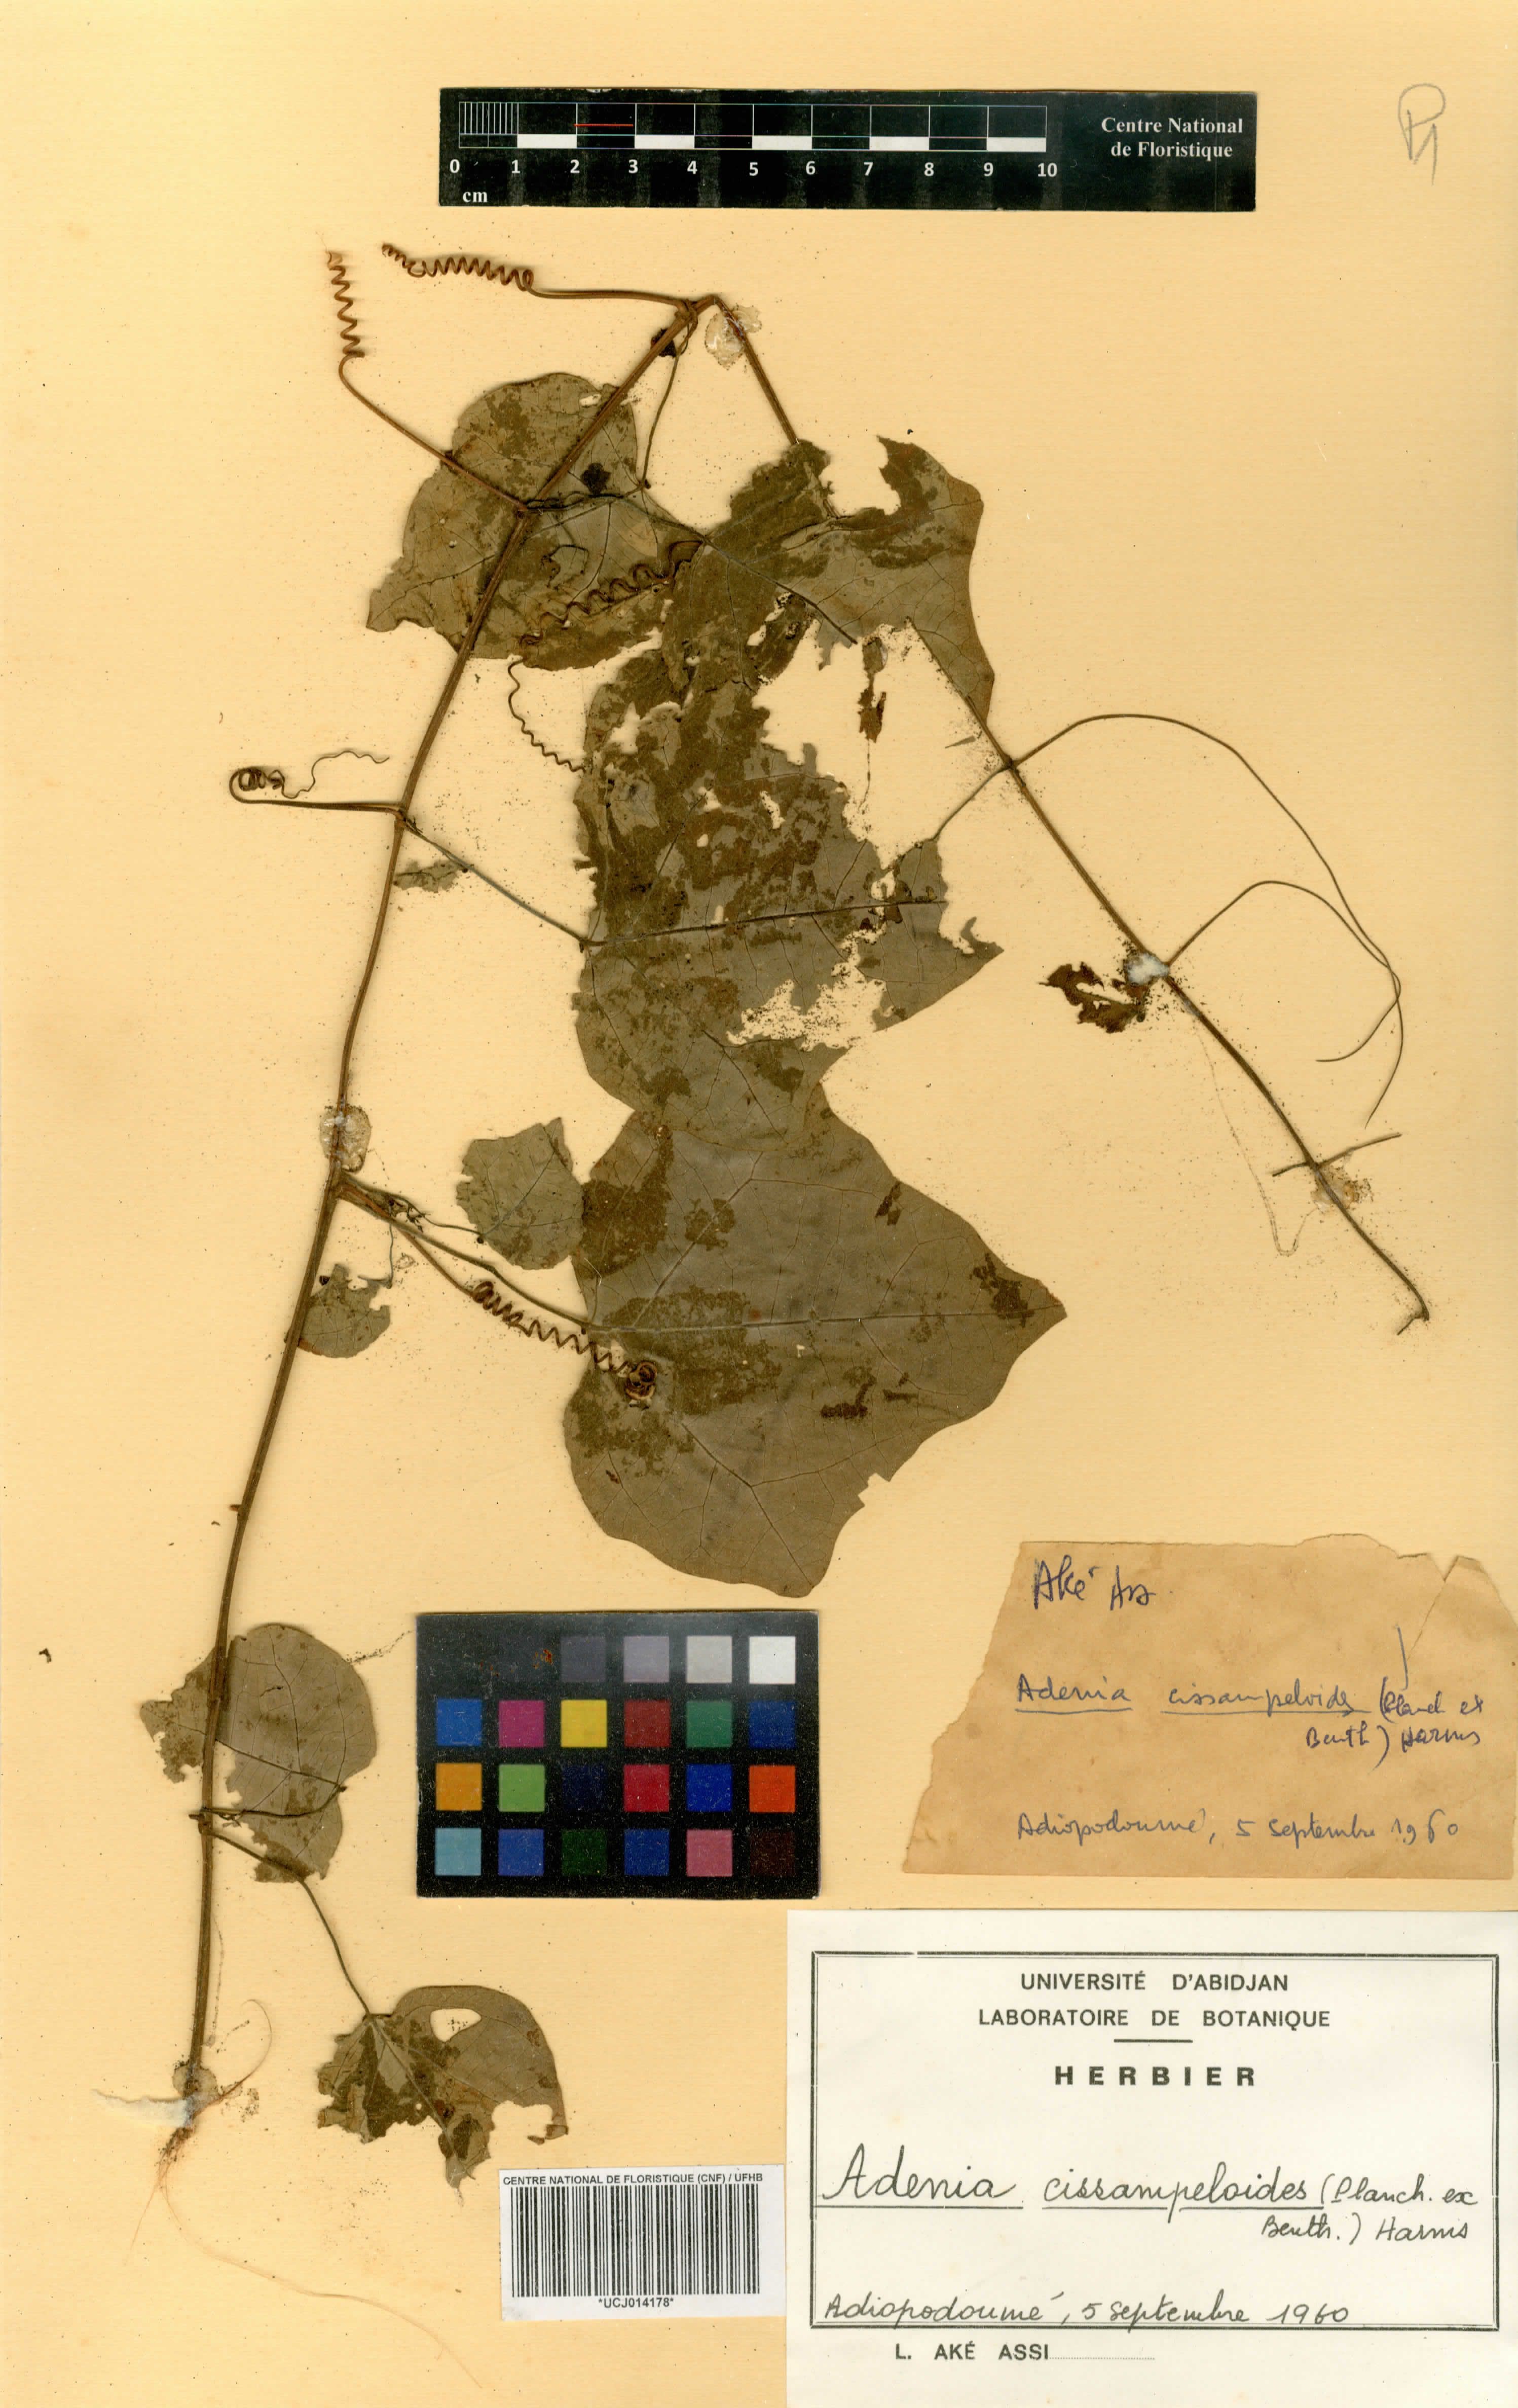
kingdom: Plantae
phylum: Tracheophyta
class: Magnoliopsida
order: Malpighiales
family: Passifloraceae
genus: Adenia
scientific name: Adenia cissampeloides
